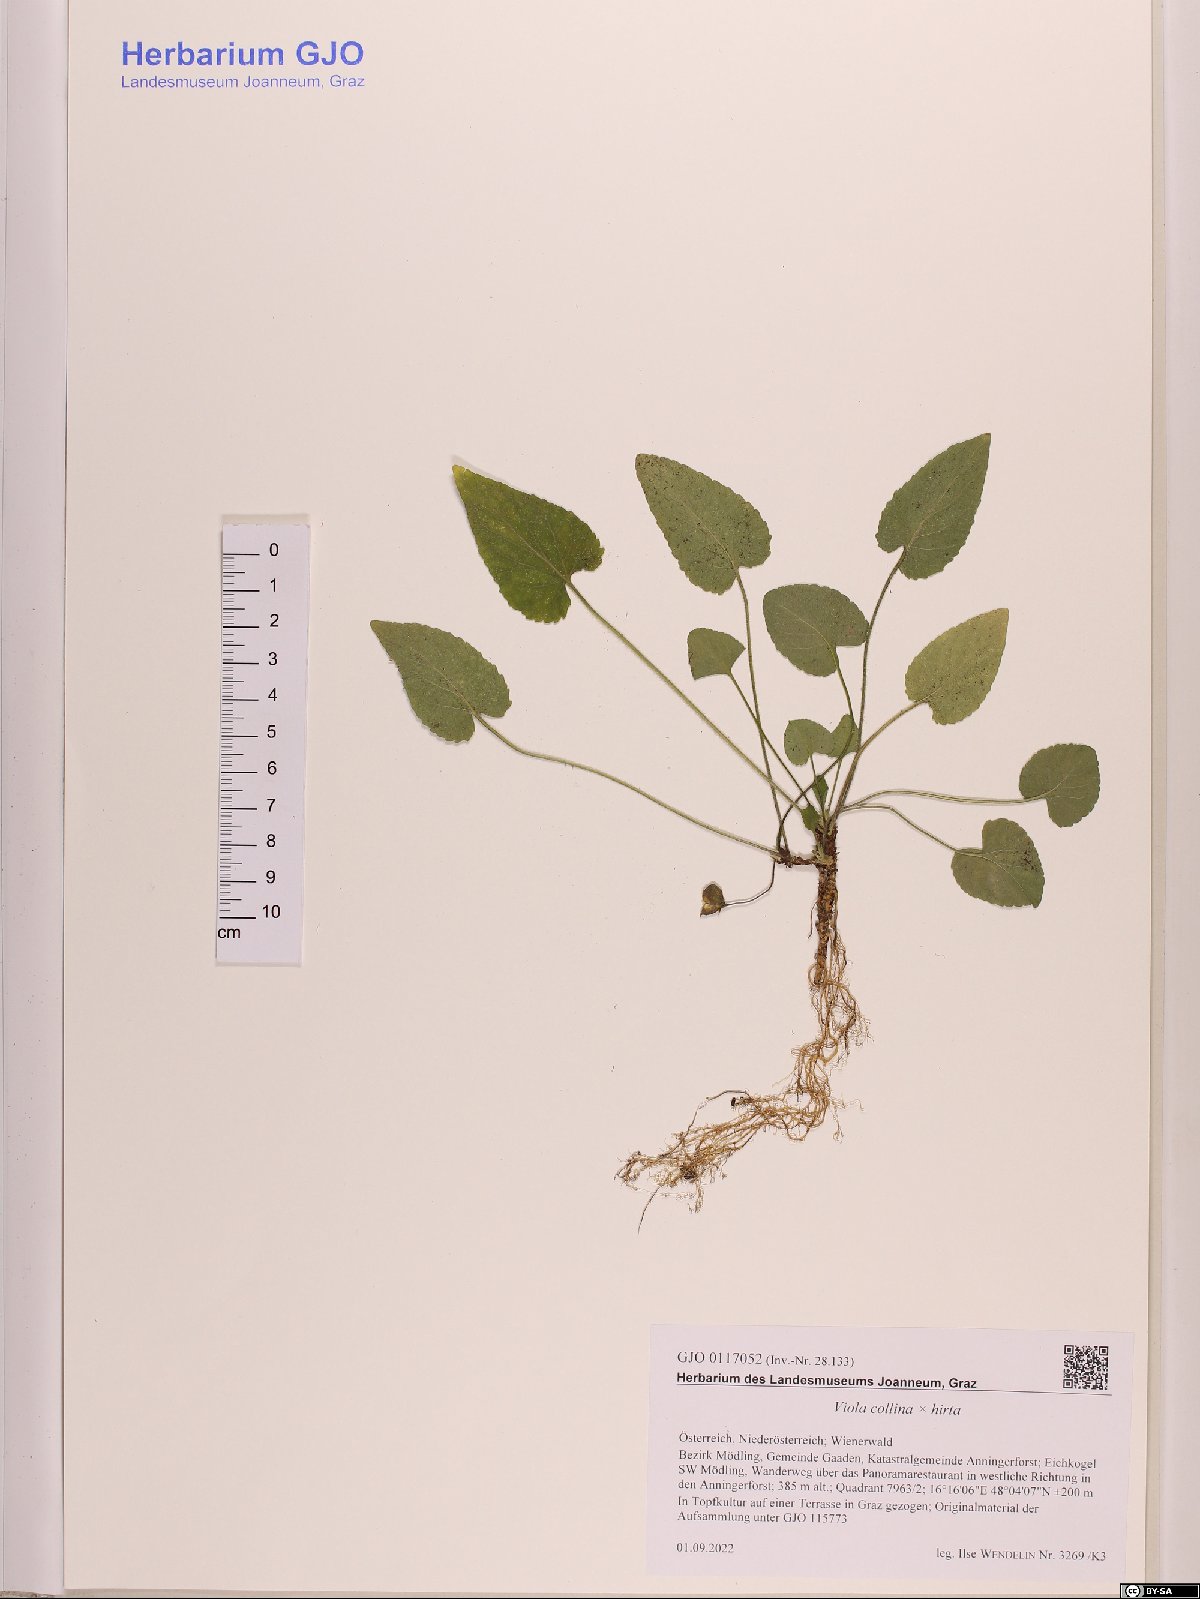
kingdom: Plantae
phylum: Tracheophyta
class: Magnoliopsida
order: Malpighiales
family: Violaceae
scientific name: Violaceae
